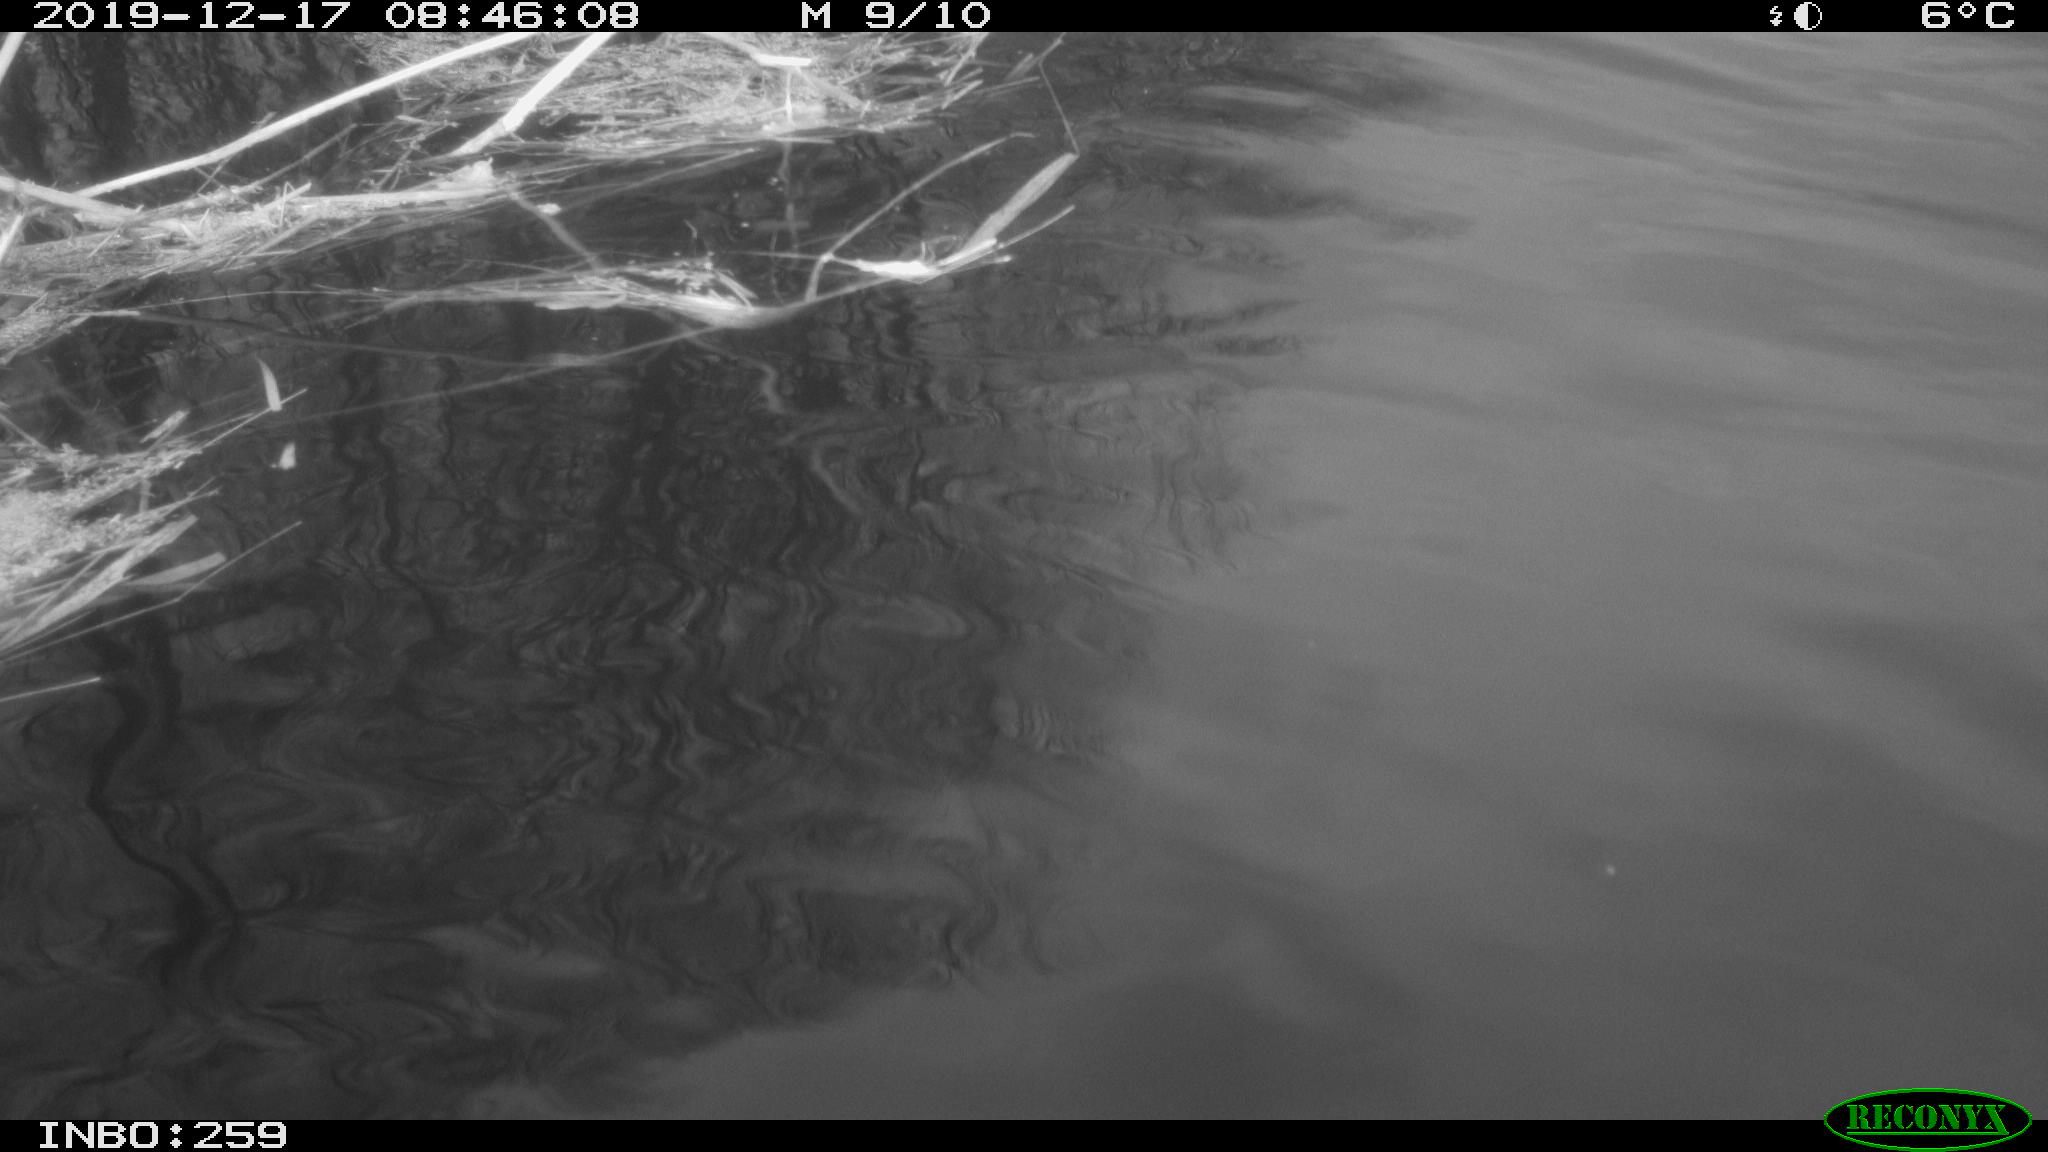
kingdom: Animalia
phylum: Chordata
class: Aves
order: Gruiformes
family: Rallidae
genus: Gallinula
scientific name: Gallinula chloropus
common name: Common moorhen
